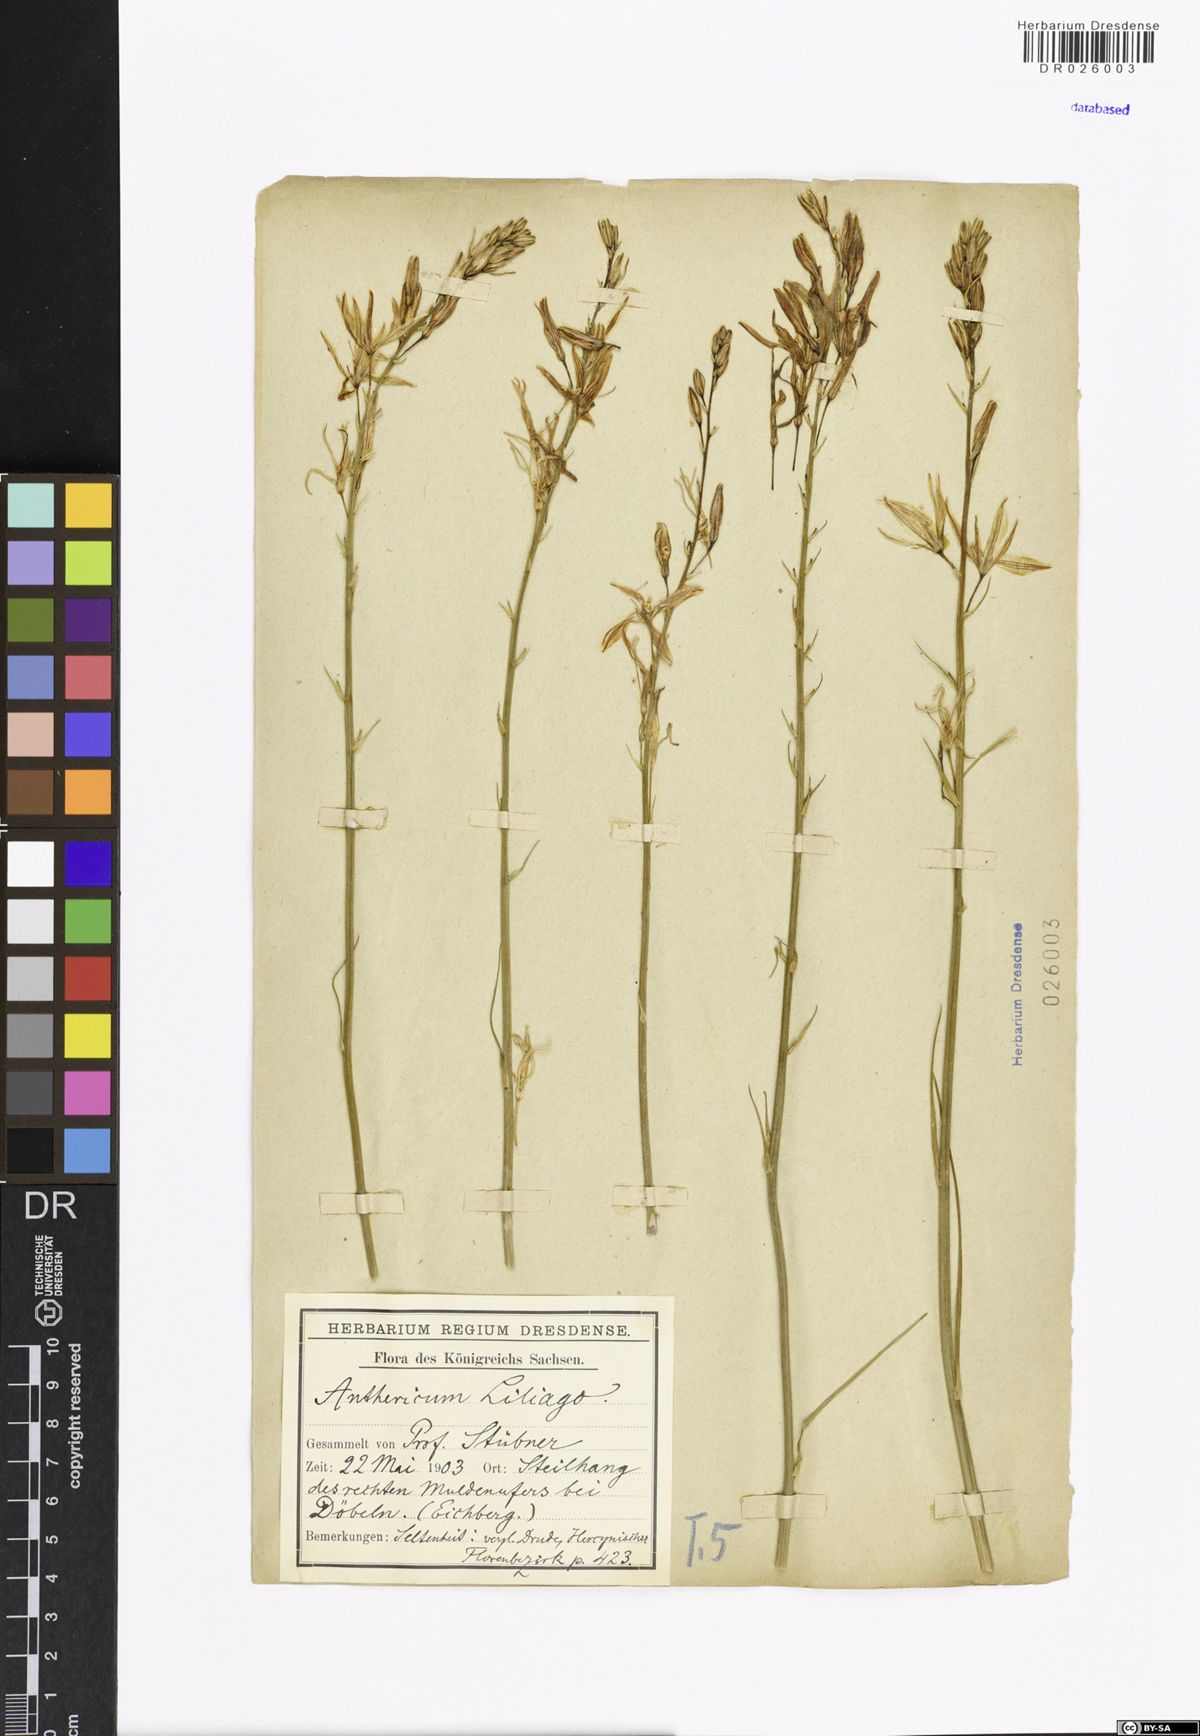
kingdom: Plantae
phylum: Tracheophyta
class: Liliopsida
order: Asparagales
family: Asparagaceae
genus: Anthericum
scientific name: Anthericum liliago
